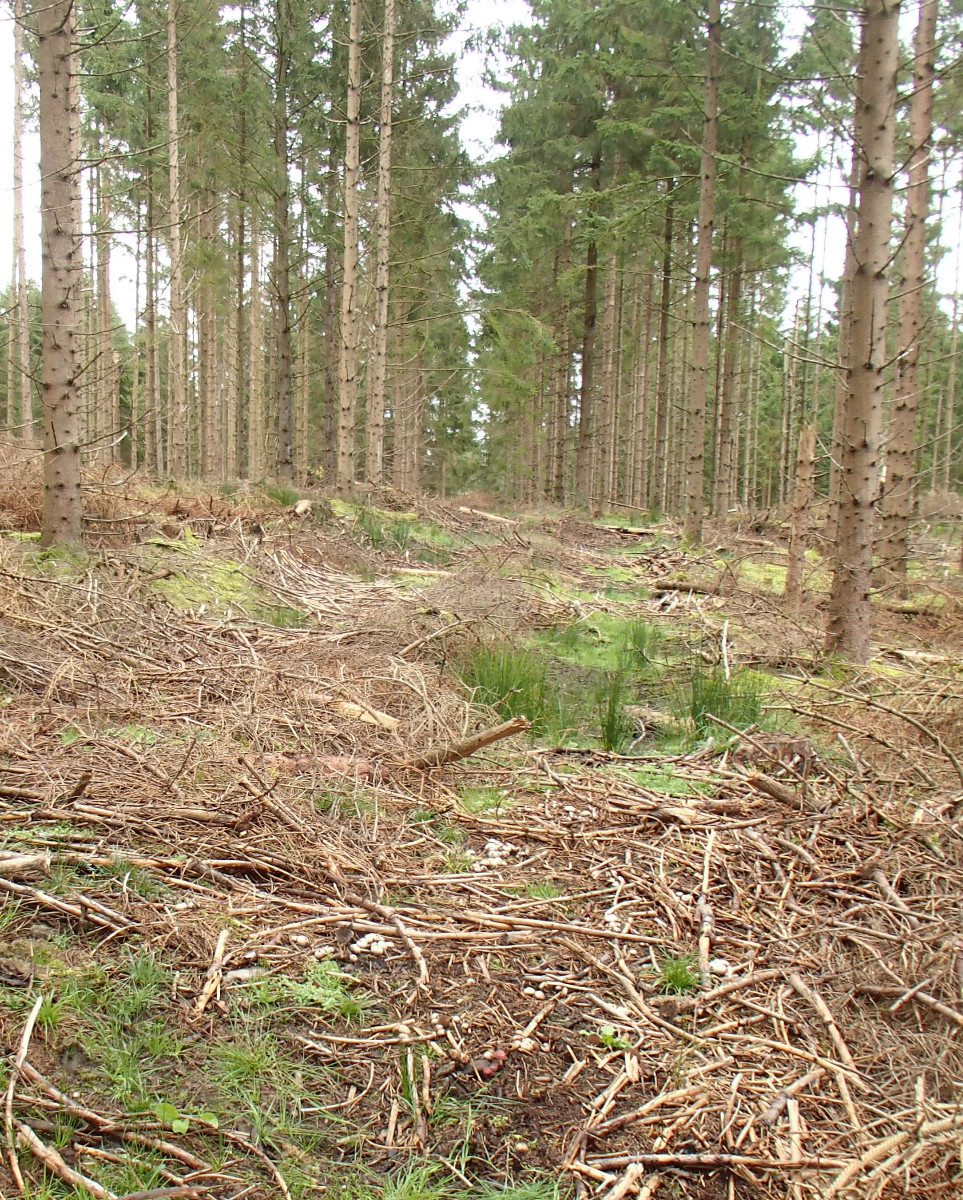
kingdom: Fungi
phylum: Basidiomycota
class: Agaricomycetes
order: Agaricales
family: Tricholomataceae
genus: Tricholomopsis
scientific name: Tricholomopsis rutilans
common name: purpur-væbnerhat
